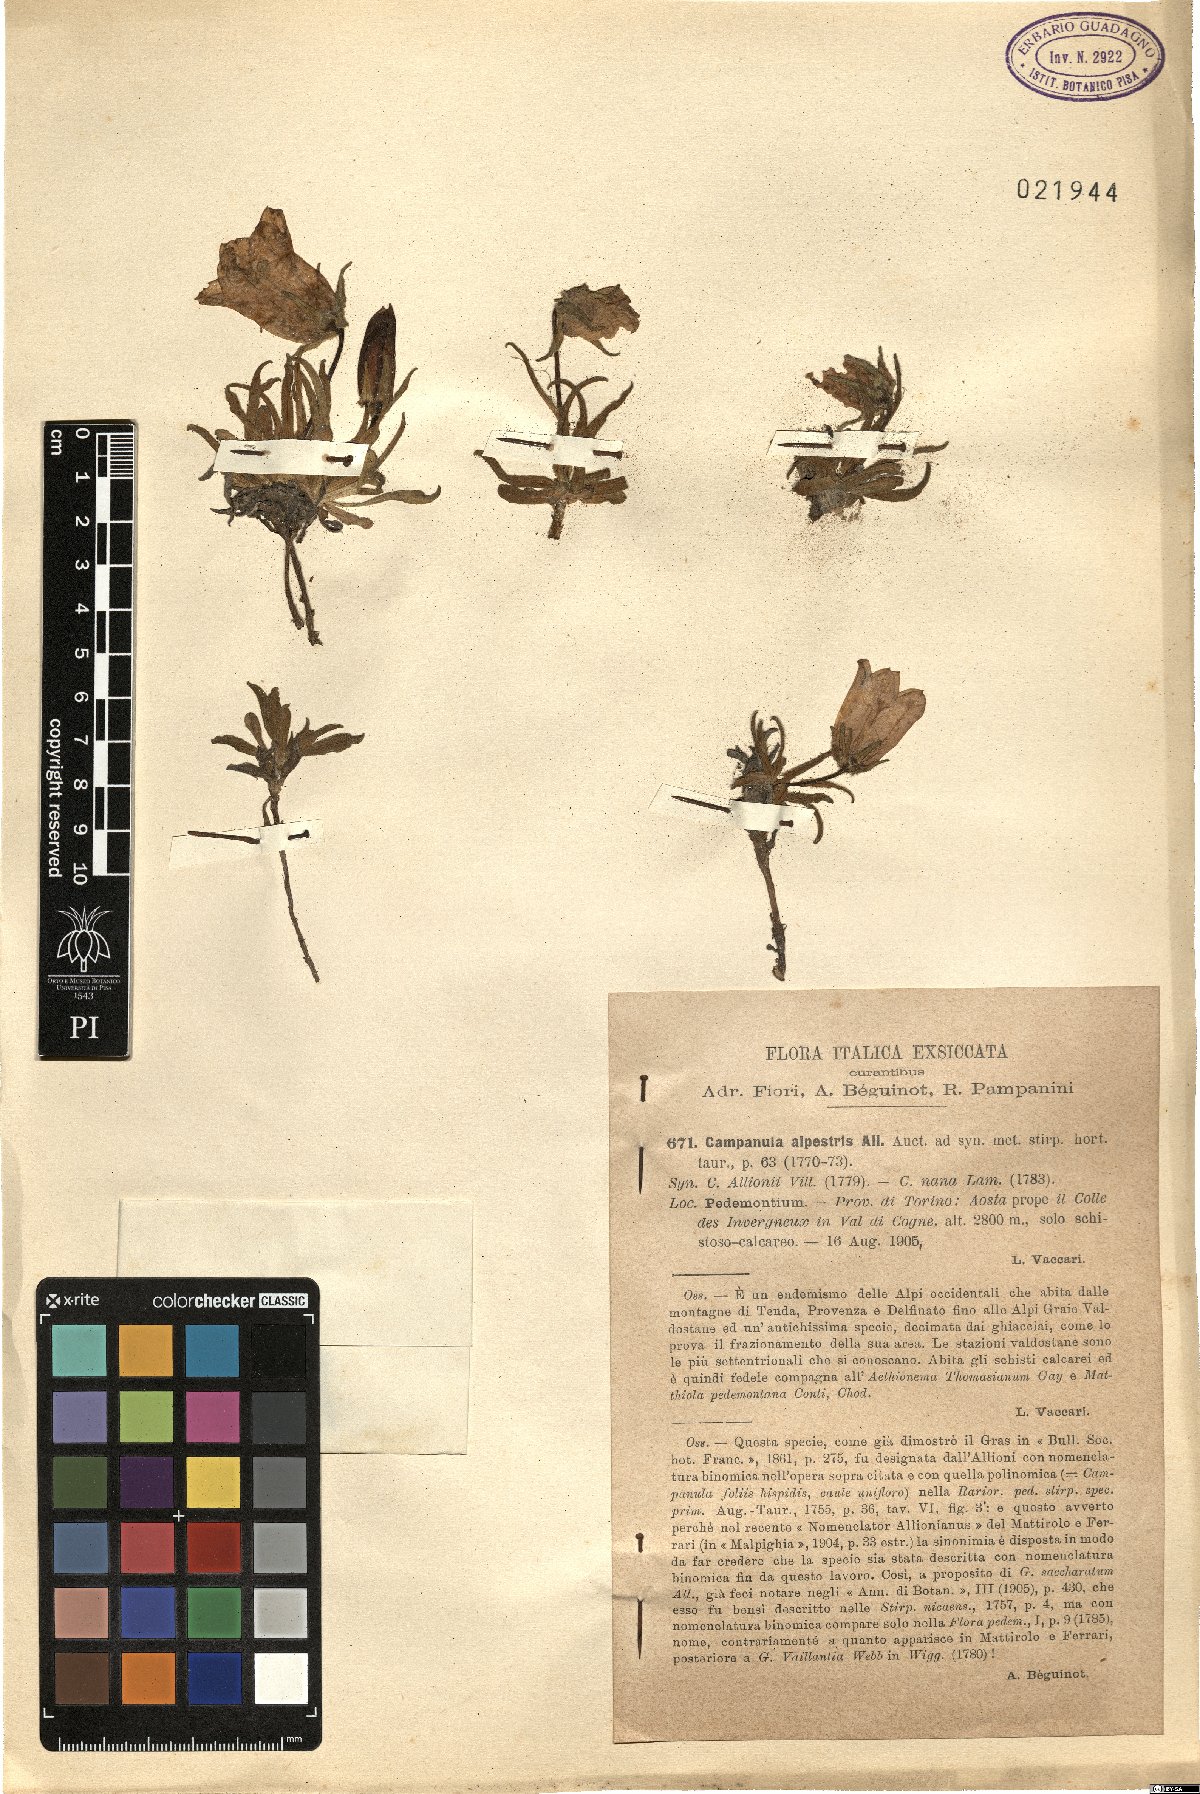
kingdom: Plantae
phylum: Tracheophyta
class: Magnoliopsida
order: Asterales
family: Campanulaceae
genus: Campanula
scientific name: Campanula alpestris
